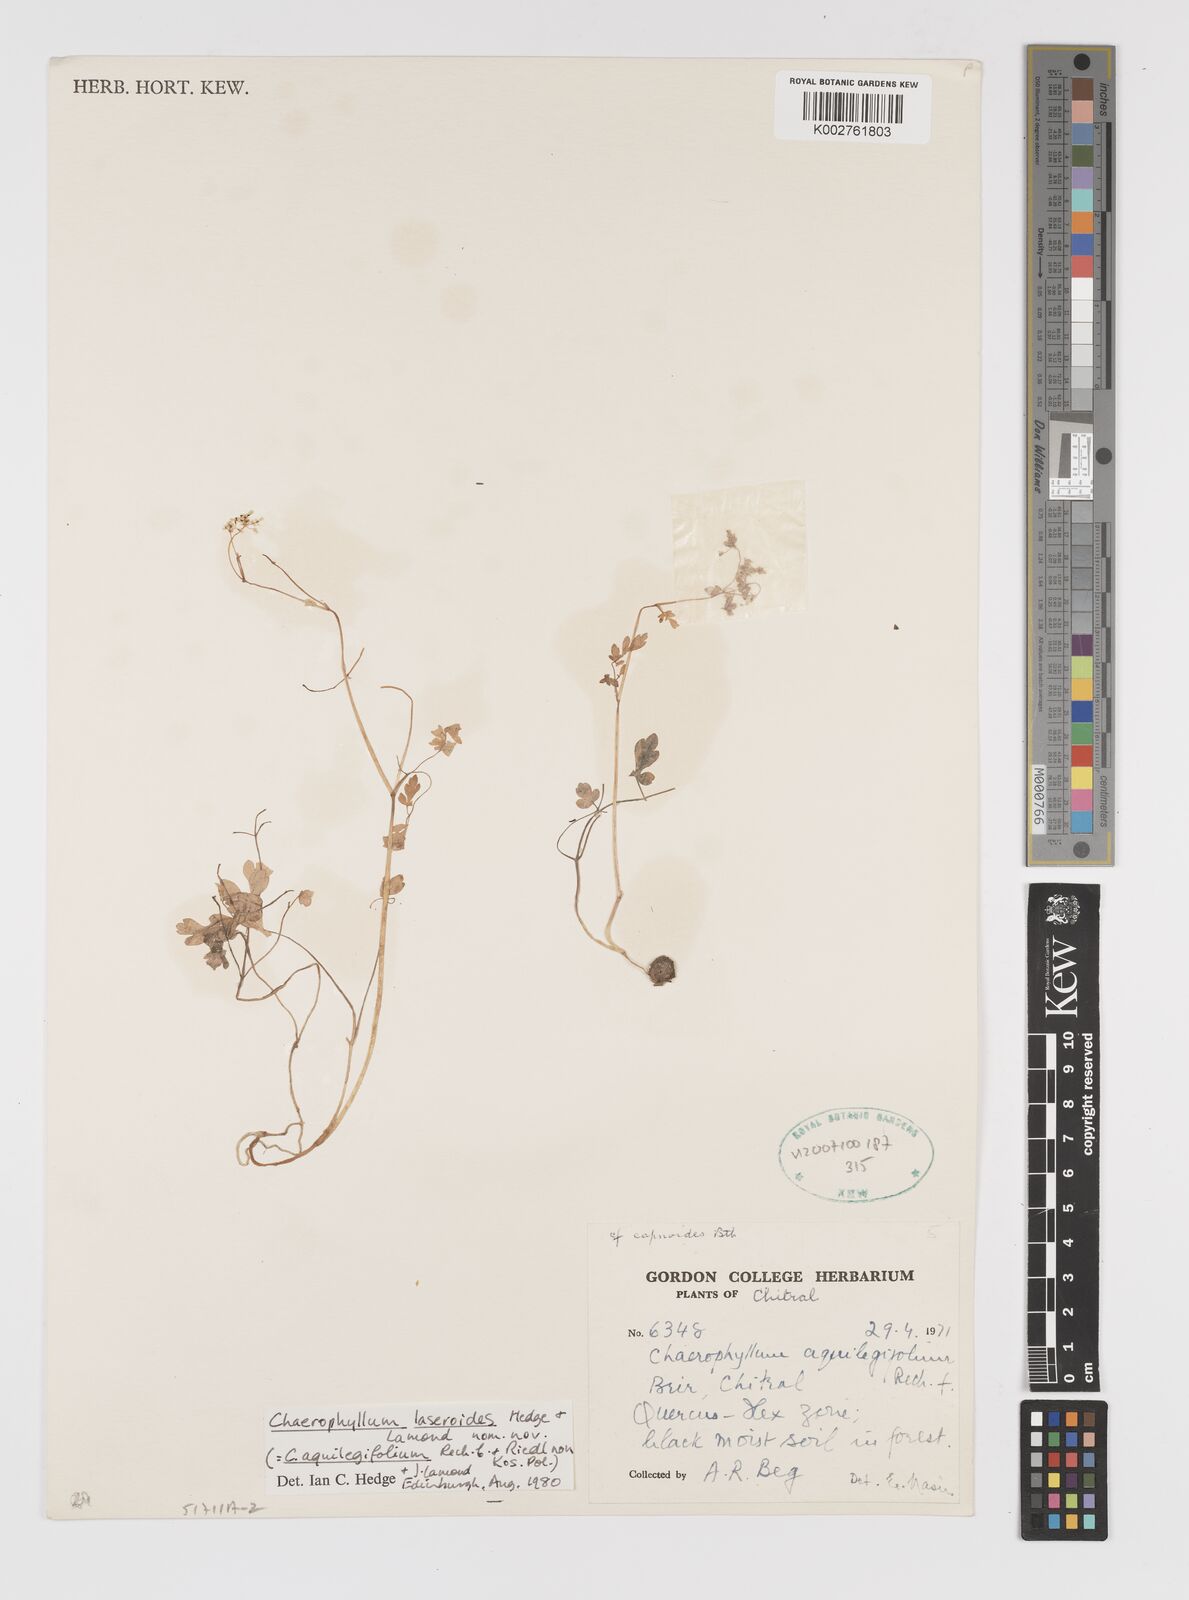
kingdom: Plantae
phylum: Tracheophyta
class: Magnoliopsida
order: Apiales
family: Apiaceae
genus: Kozlovia
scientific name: Kozlovia laseroides
